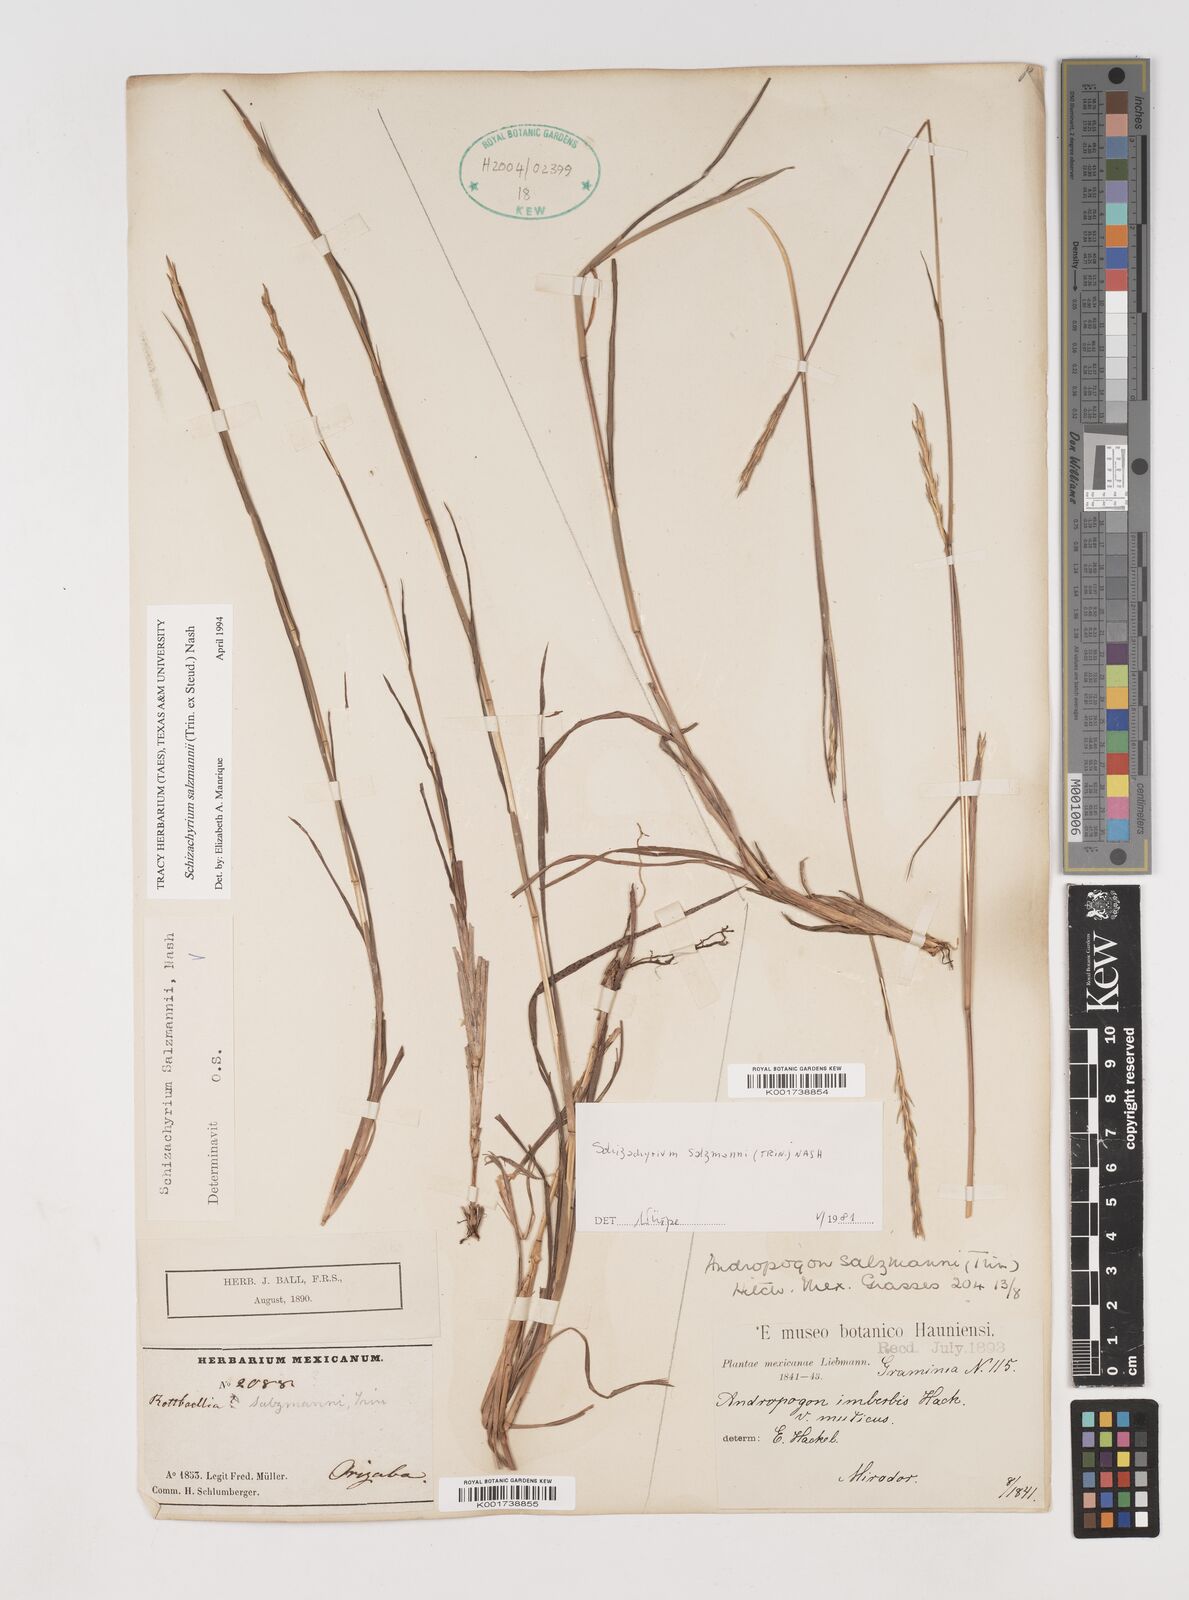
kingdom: Plantae
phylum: Tracheophyta
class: Liliopsida
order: Poales
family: Poaceae
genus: Andropogon
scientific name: Andropogon salzmannii
